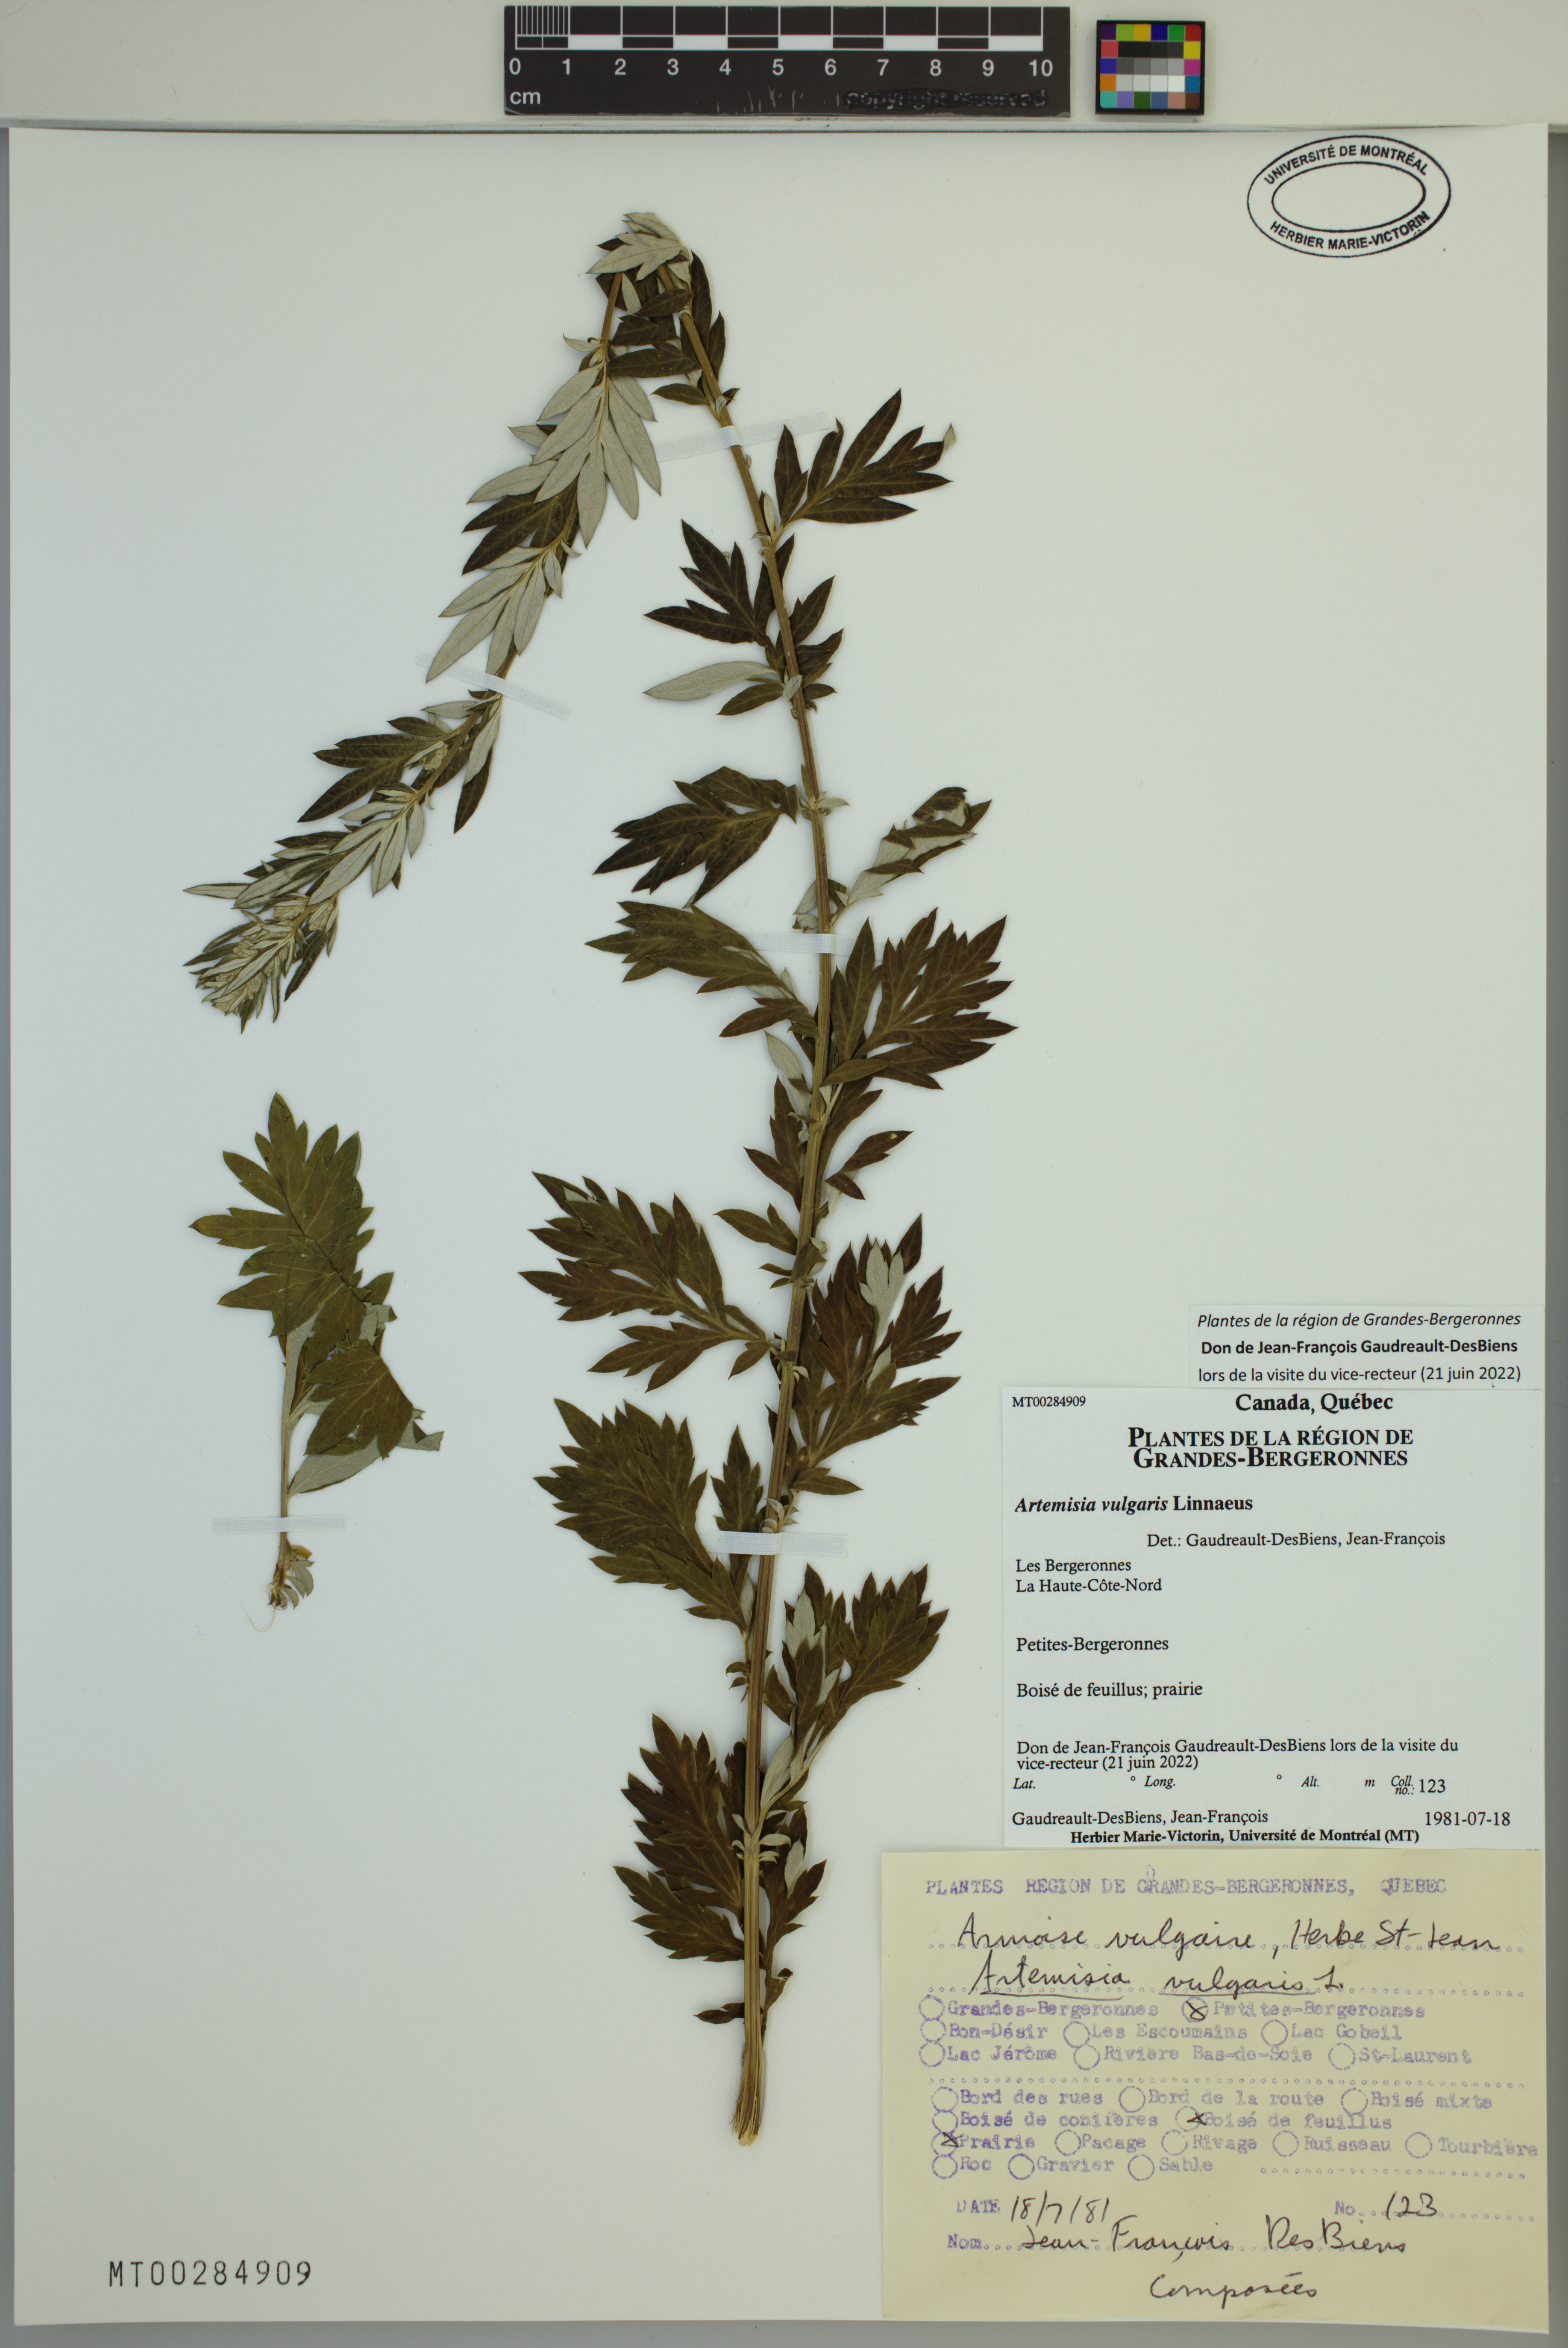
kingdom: Plantae
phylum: Tracheophyta
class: Magnoliopsida
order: Asterales
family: Asteraceae
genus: Artemisia
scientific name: Artemisia vulgaris
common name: Mugwort
